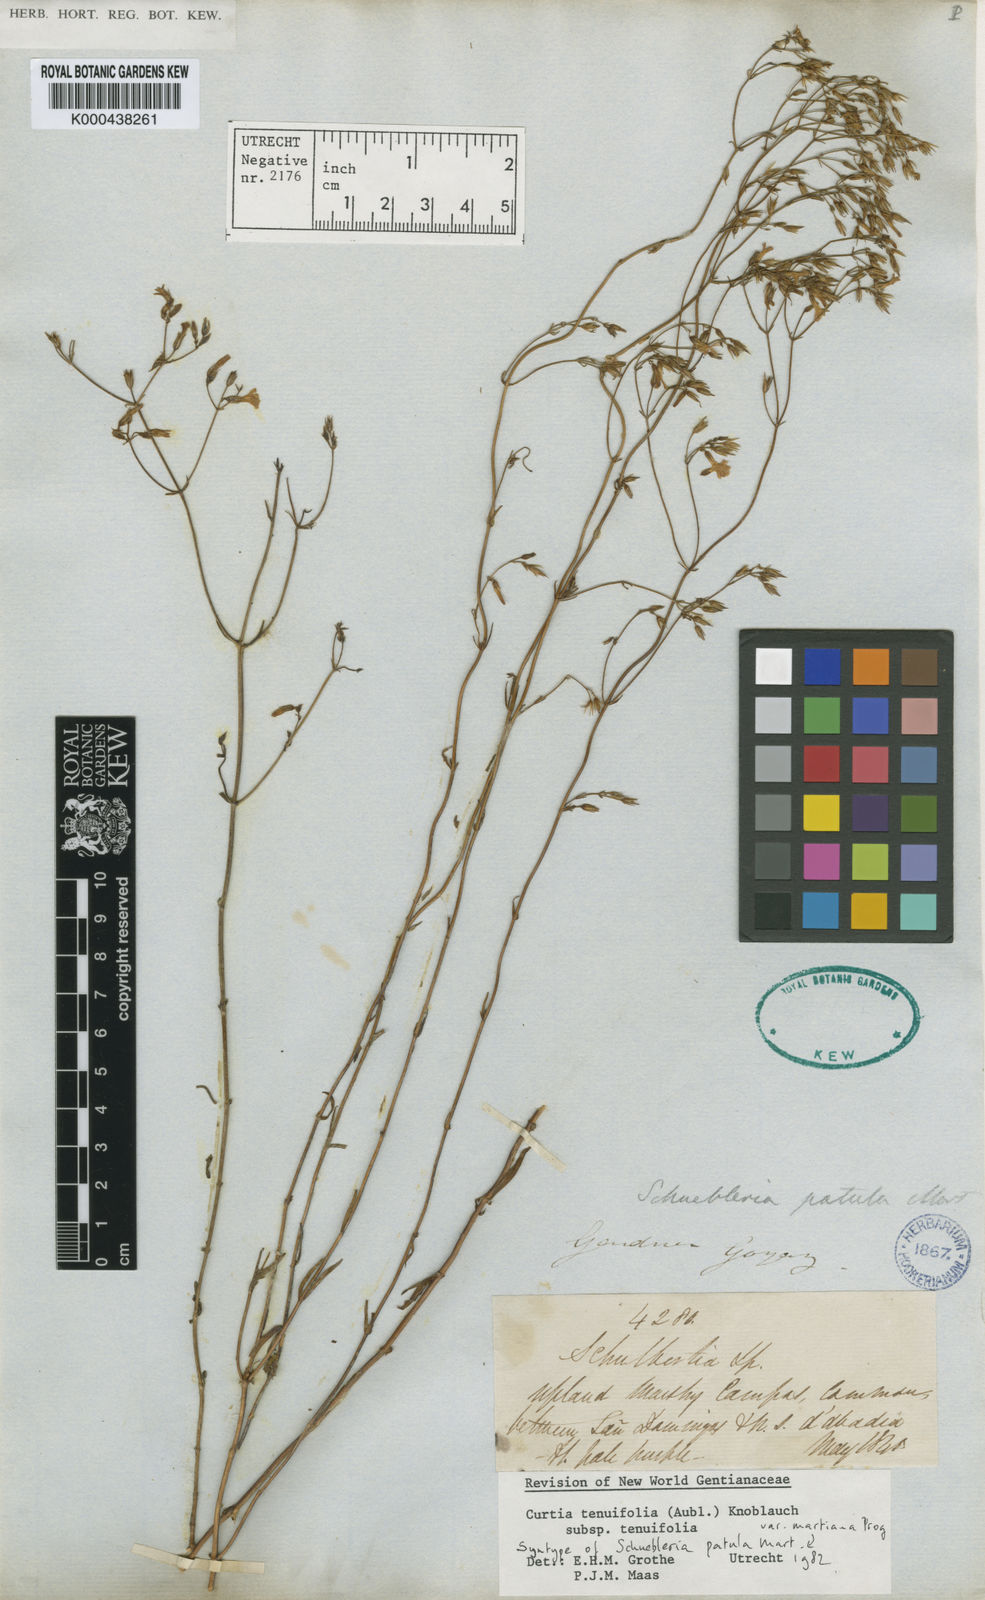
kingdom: Plantae
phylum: Tracheophyta
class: Magnoliopsida
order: Gentianales
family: Gentianaceae
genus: Curtia
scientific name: Curtia tenuifolia
